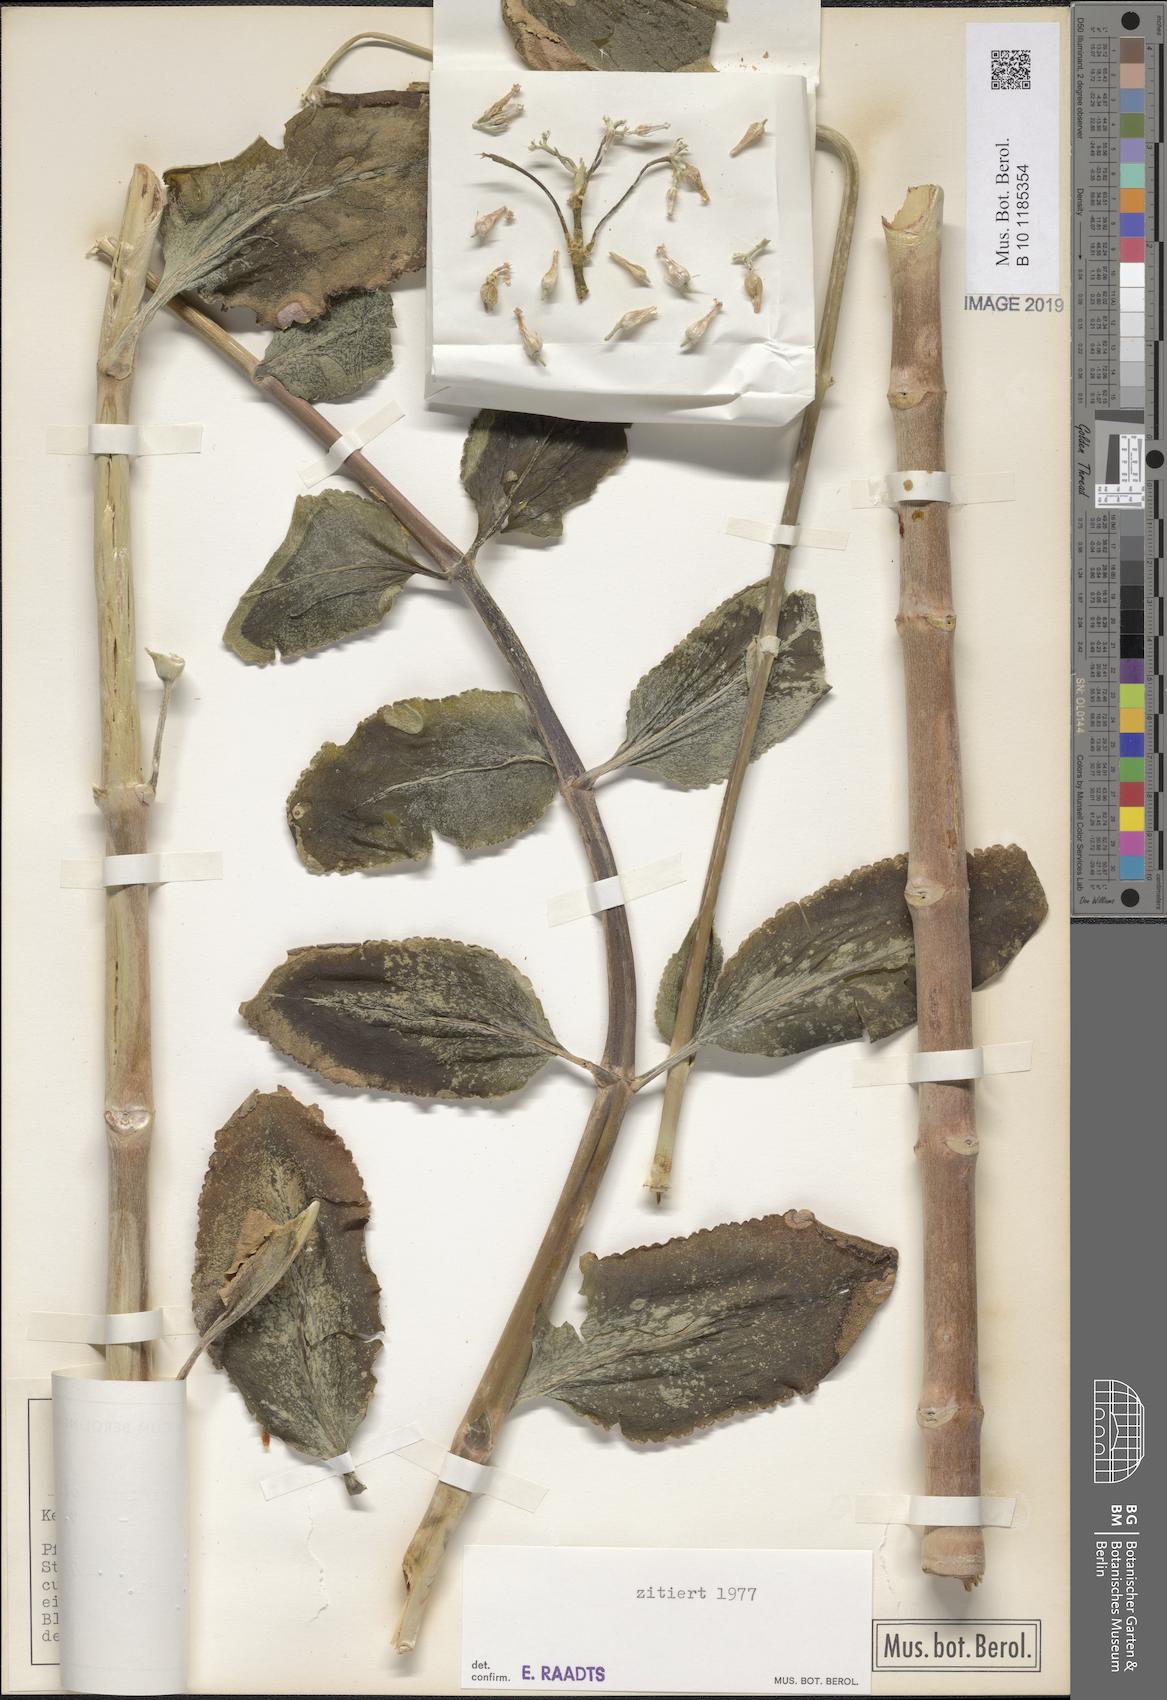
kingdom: Plantae
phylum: Tracheophyta
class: Magnoliopsida
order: Saxifragales
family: Crassulaceae
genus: Kalanchoe
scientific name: Kalanchoe densiflora
